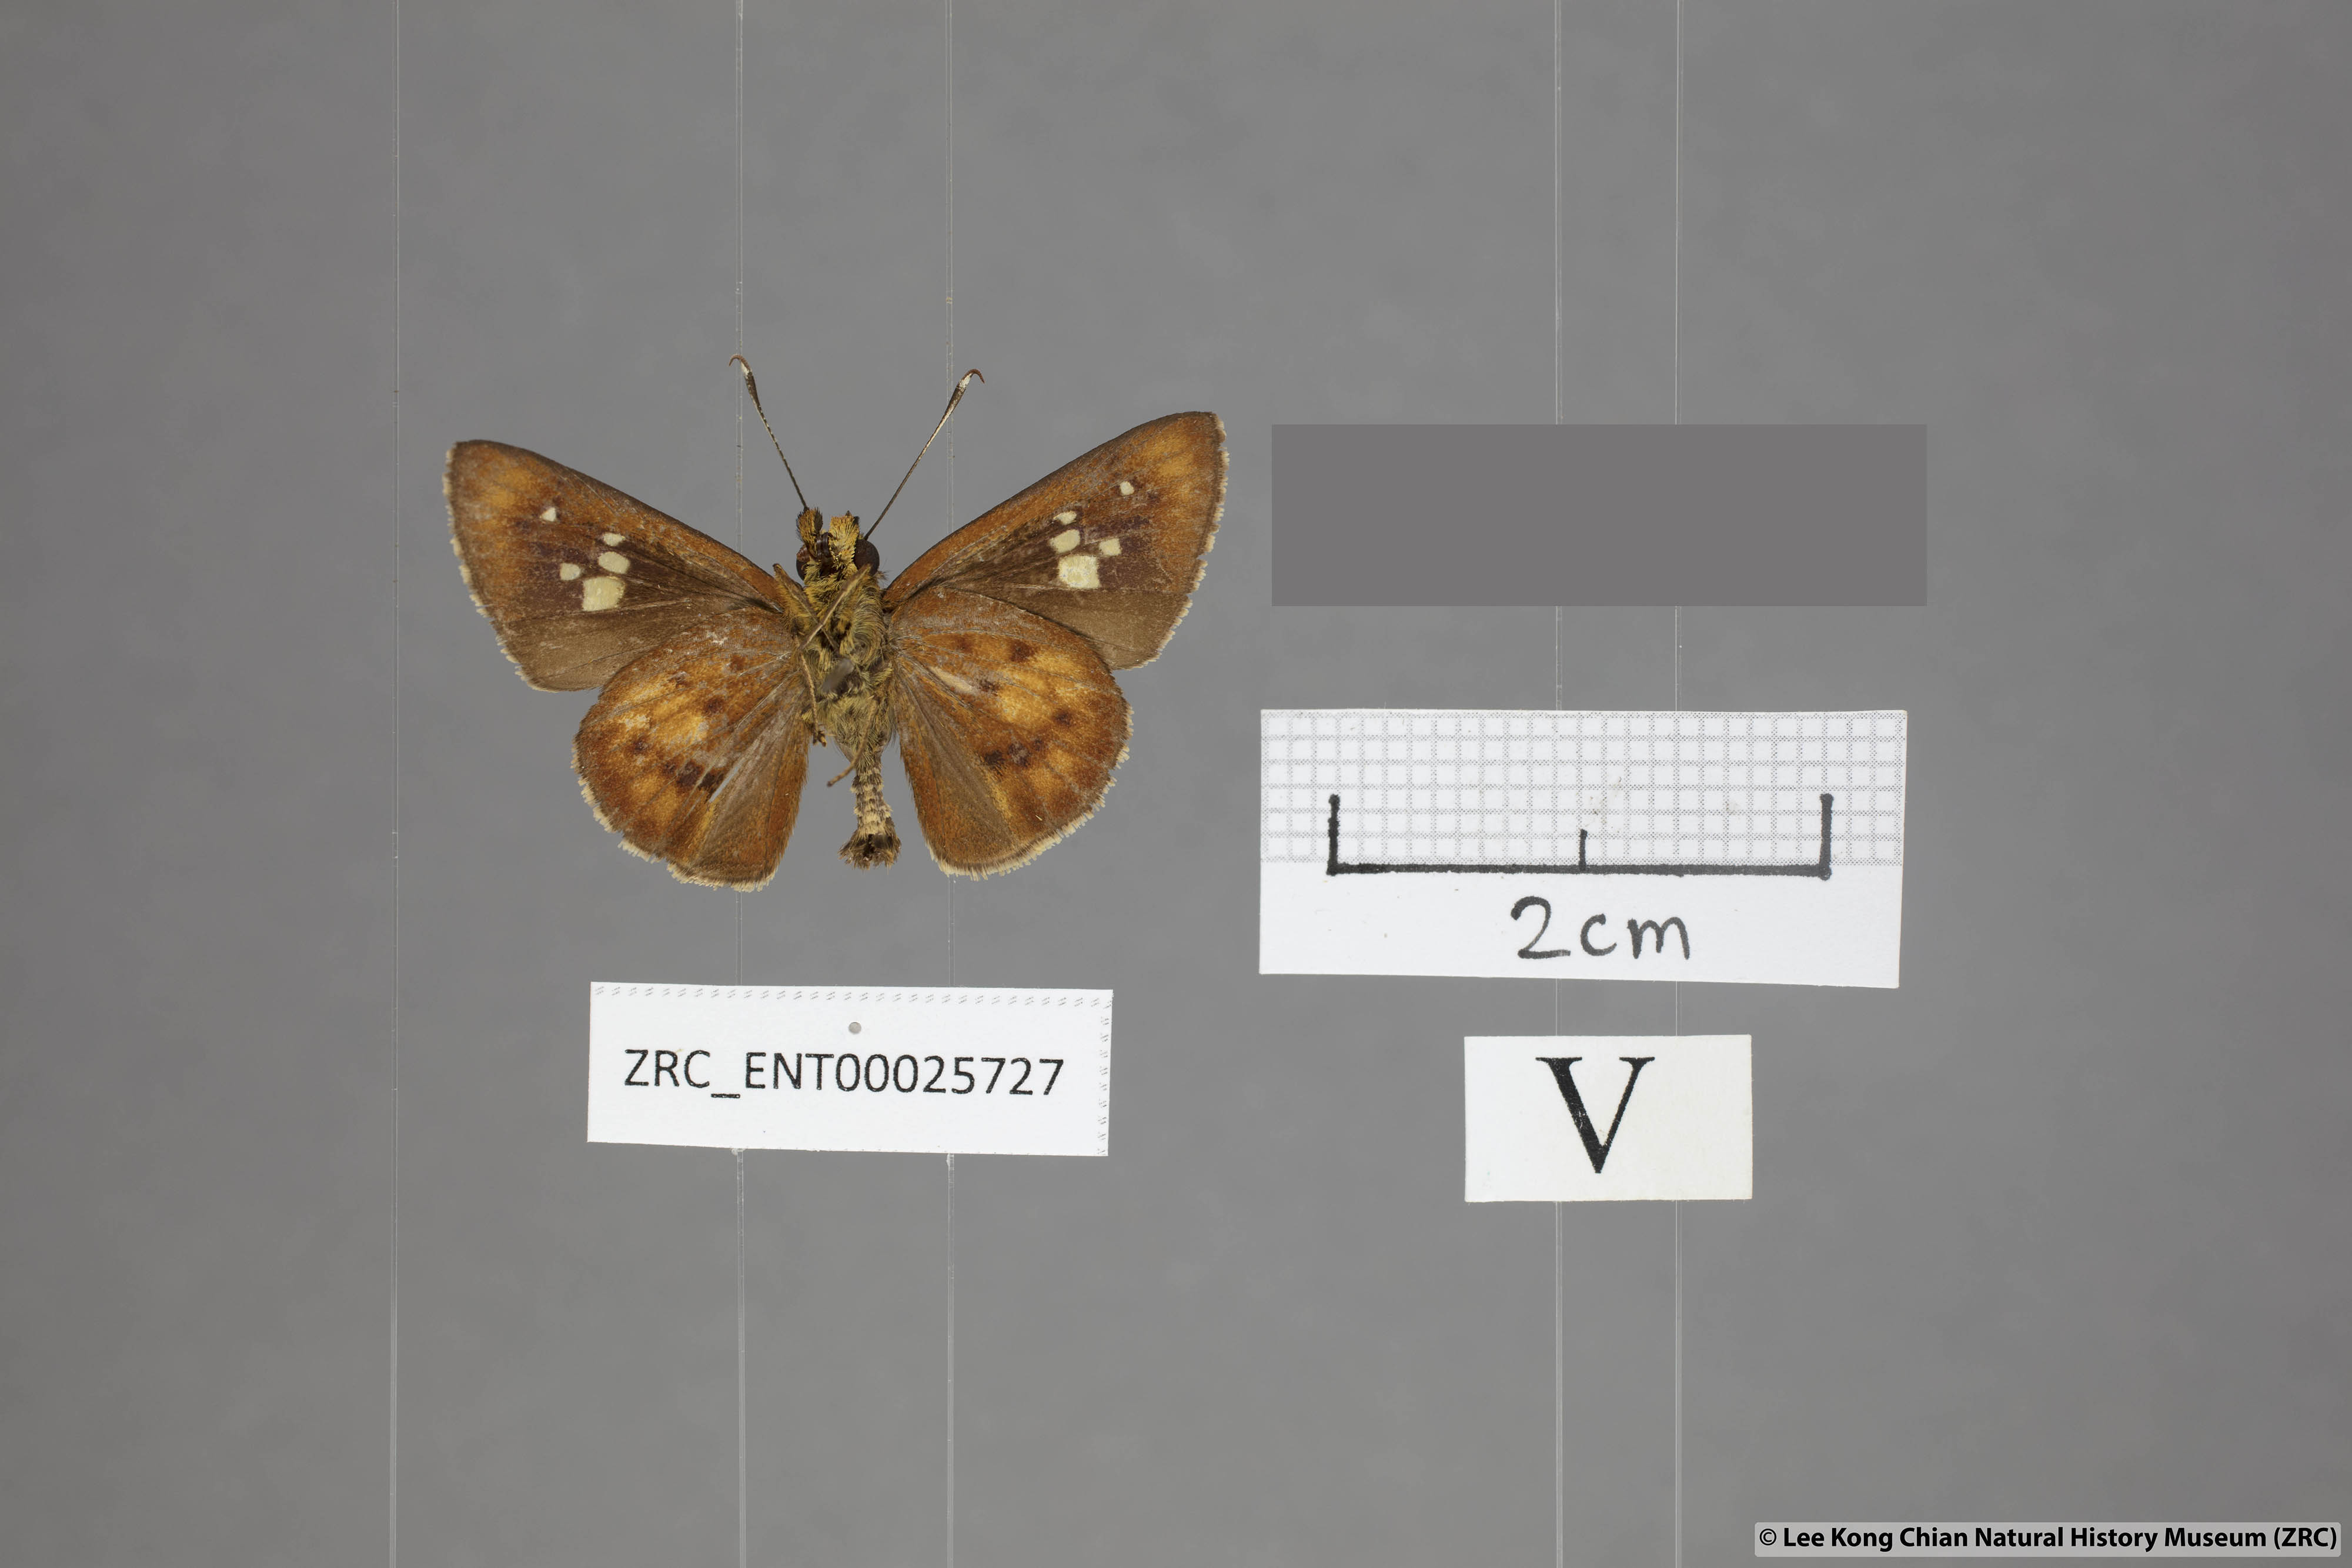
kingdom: Animalia
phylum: Arthropoda
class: Insecta
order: Lepidoptera
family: Hesperiidae
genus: Zographetus
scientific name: Zographetus doxus
